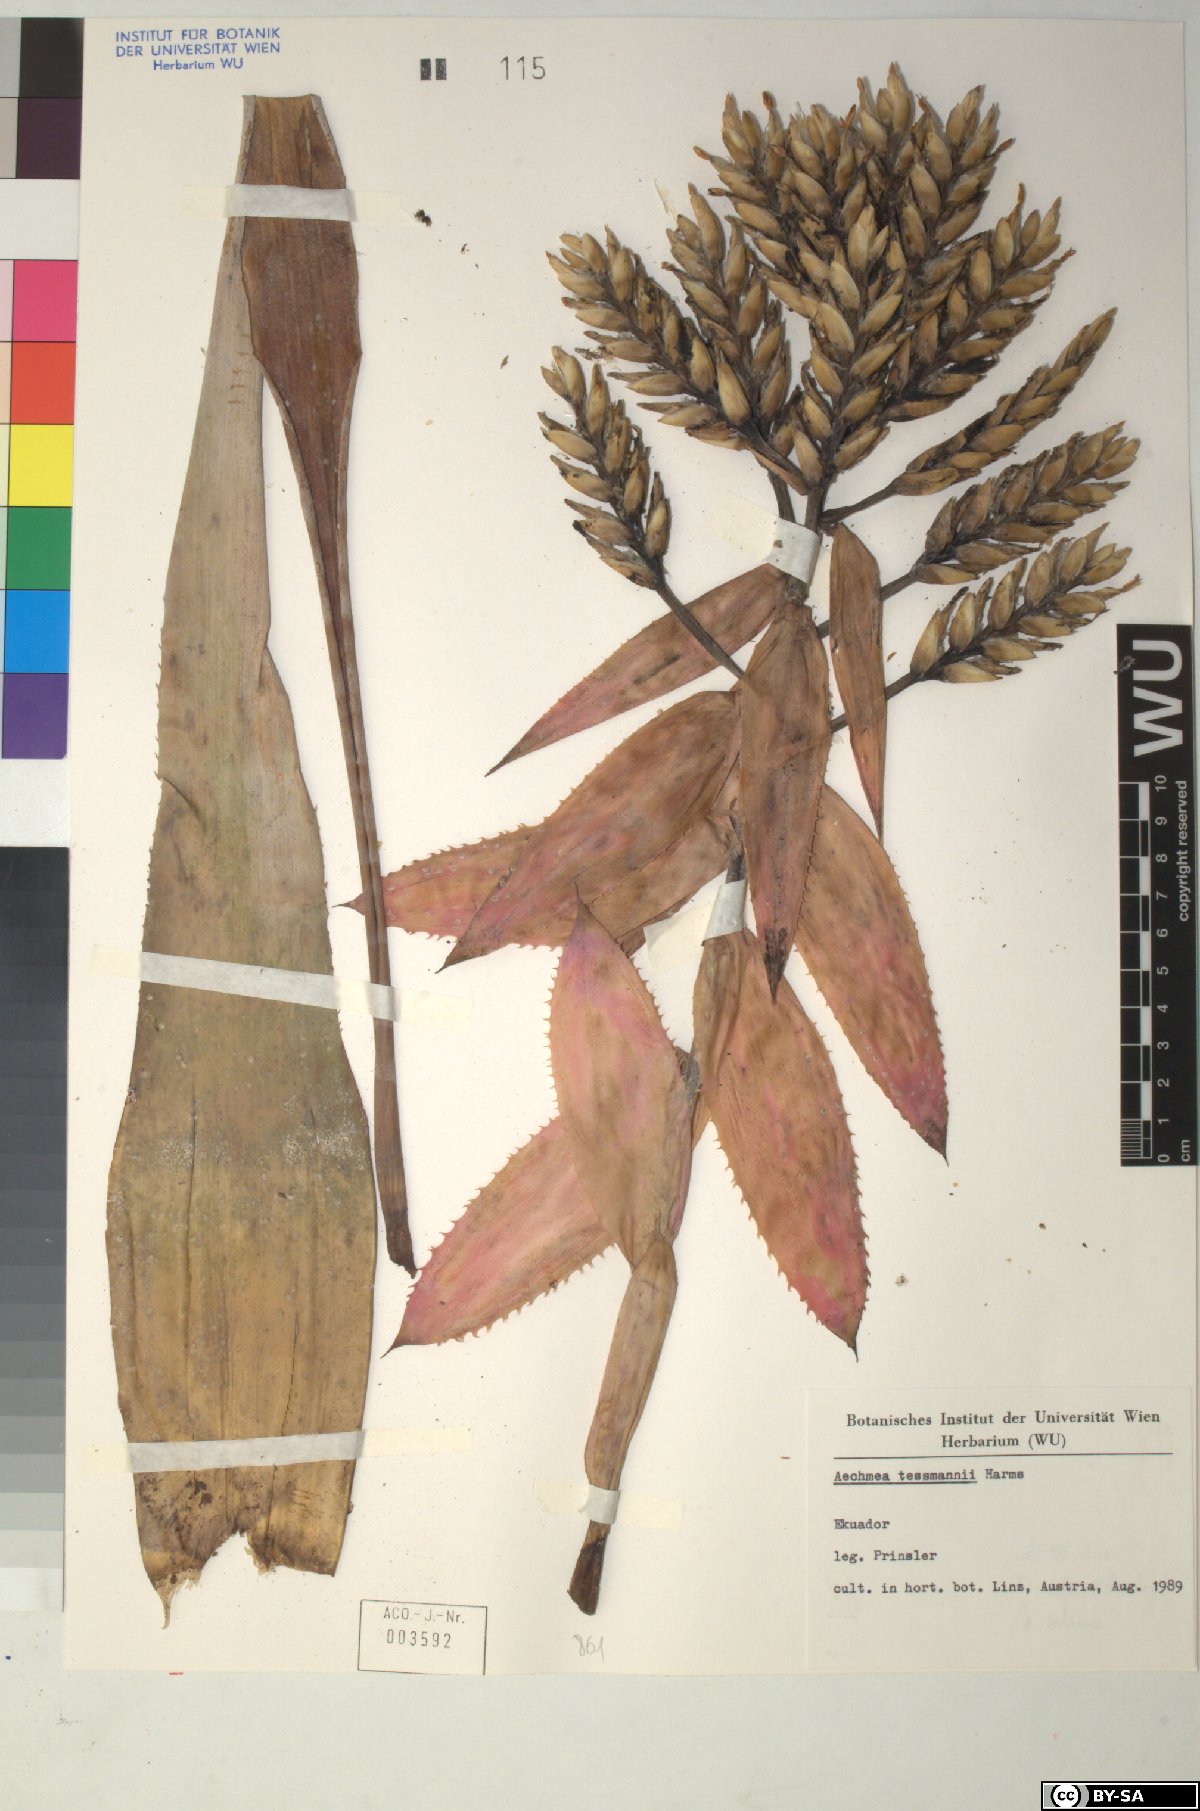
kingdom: Plantae
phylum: Tracheophyta
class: Liliopsida
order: Poales
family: Bromeliaceae
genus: Aechmea
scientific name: Aechmea
